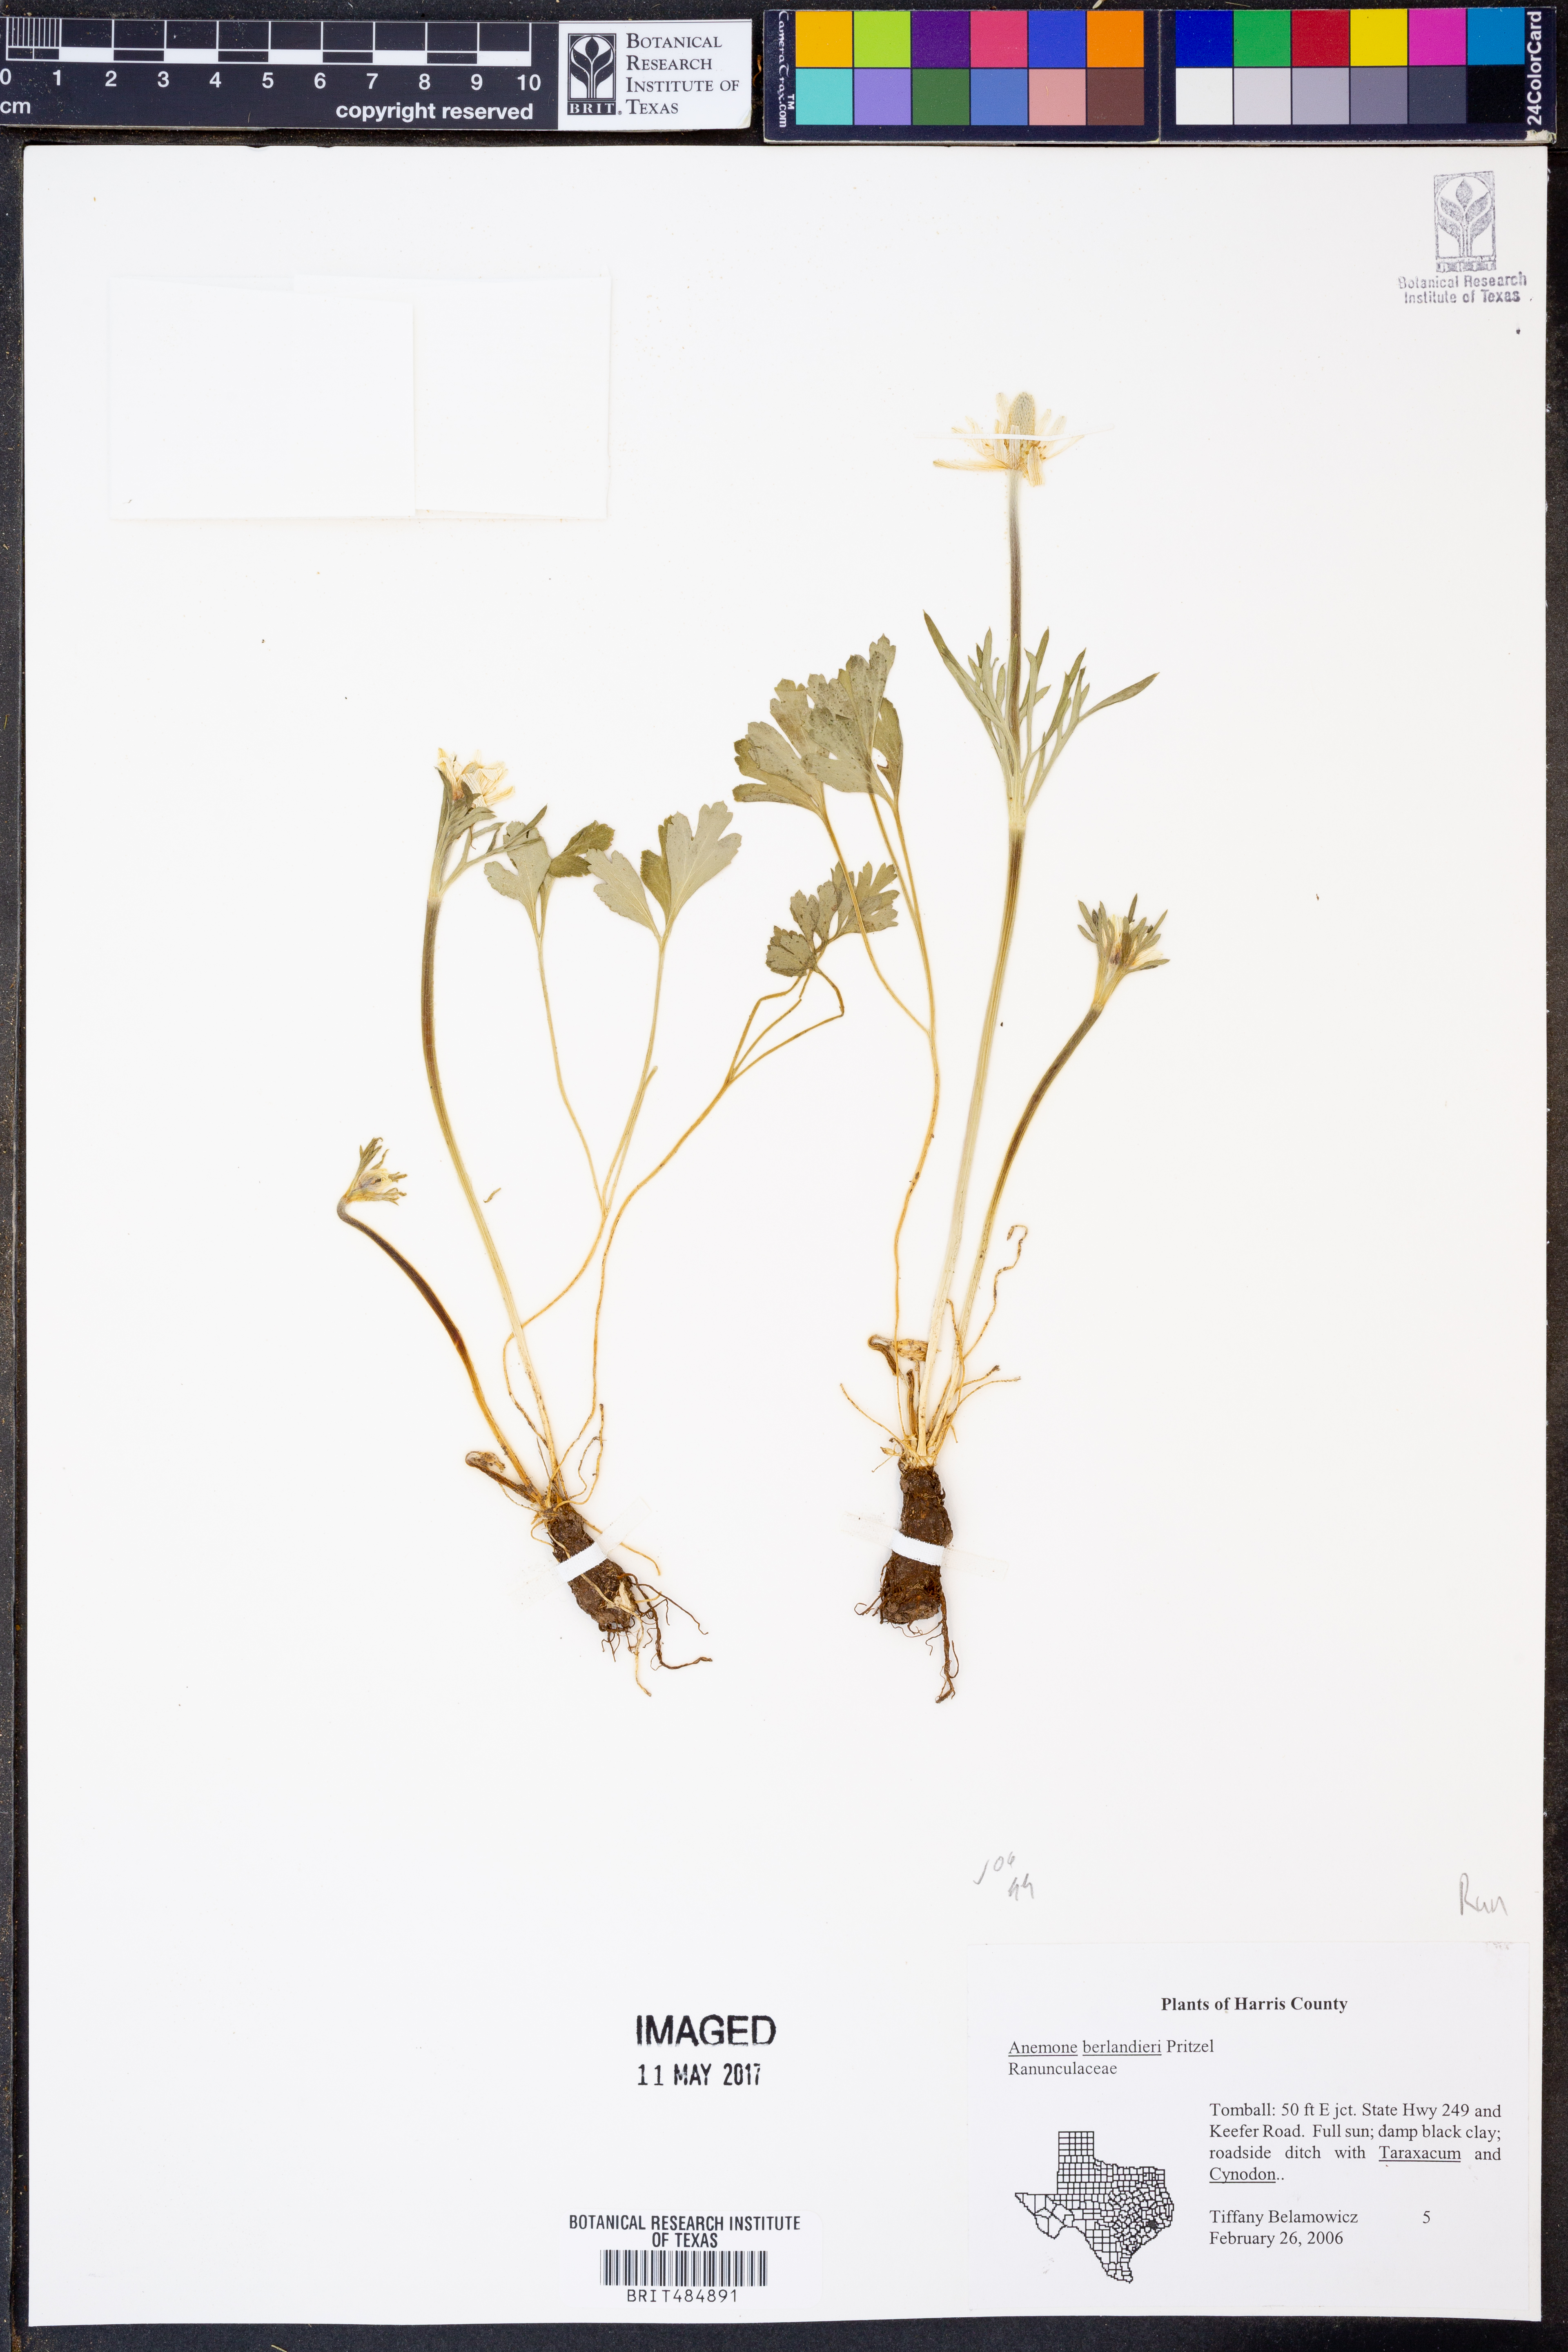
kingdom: Plantae
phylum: Tracheophyta
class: Magnoliopsida
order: Ranunculales
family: Ranunculaceae
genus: Anemone
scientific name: Anemone berlandieri
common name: Ten-petal anemone
